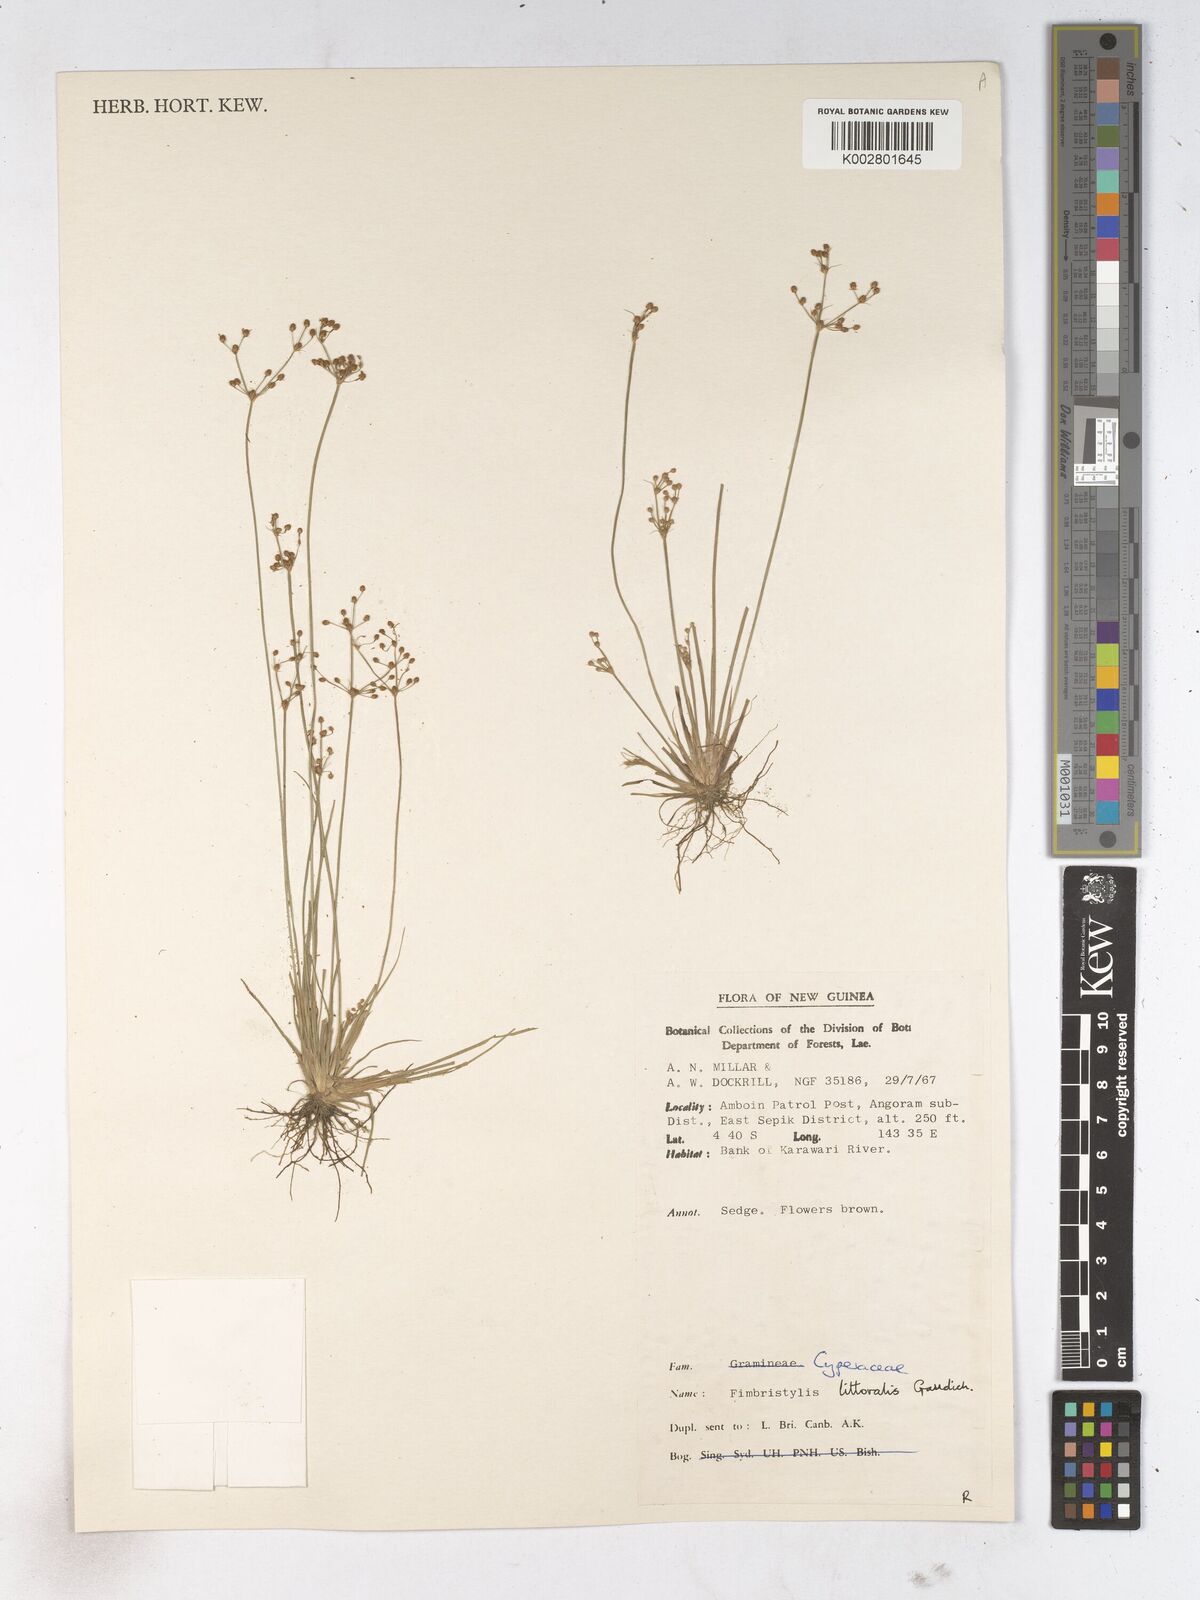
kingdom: Plantae
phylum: Tracheophyta
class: Liliopsida
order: Poales
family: Cyperaceae
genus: Fimbristylis
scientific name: Fimbristylis littoralis
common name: Fimbry
